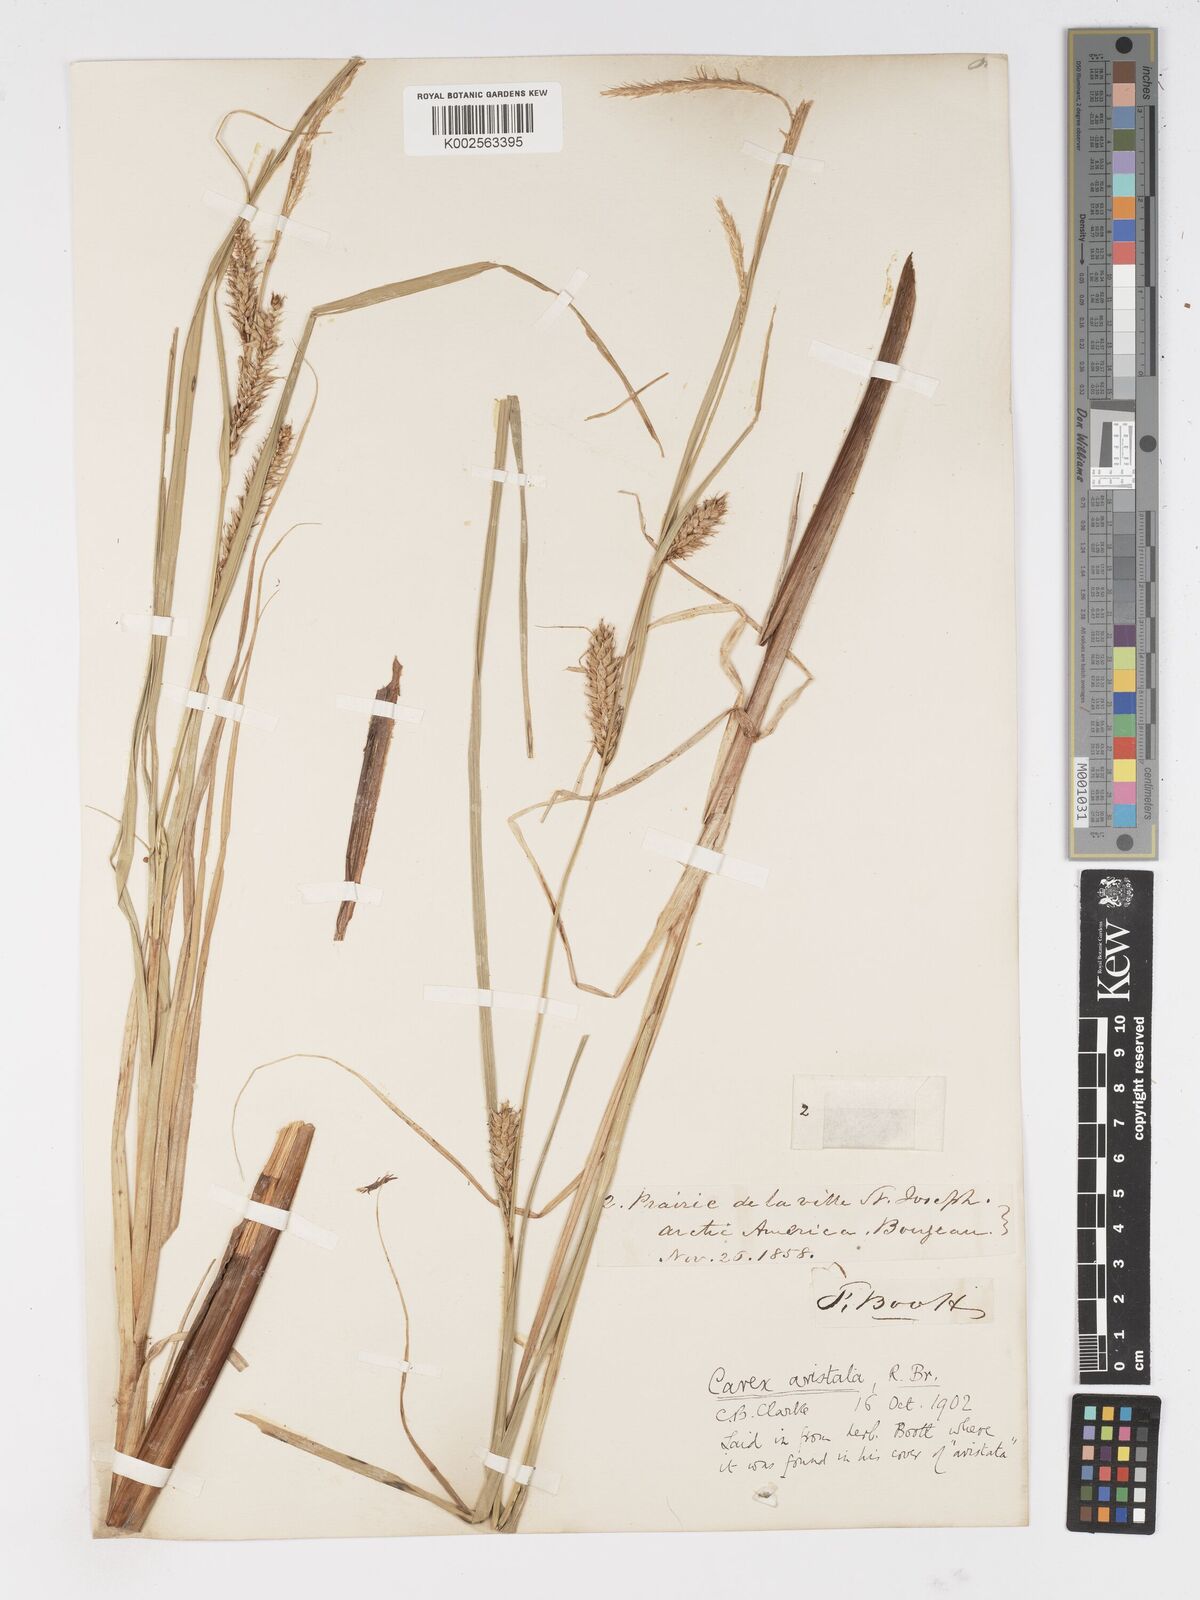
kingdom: Plantae
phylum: Tracheophyta
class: Liliopsida
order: Poales
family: Cyperaceae
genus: Carex
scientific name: Carex atherodes
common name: Wheat sedge
